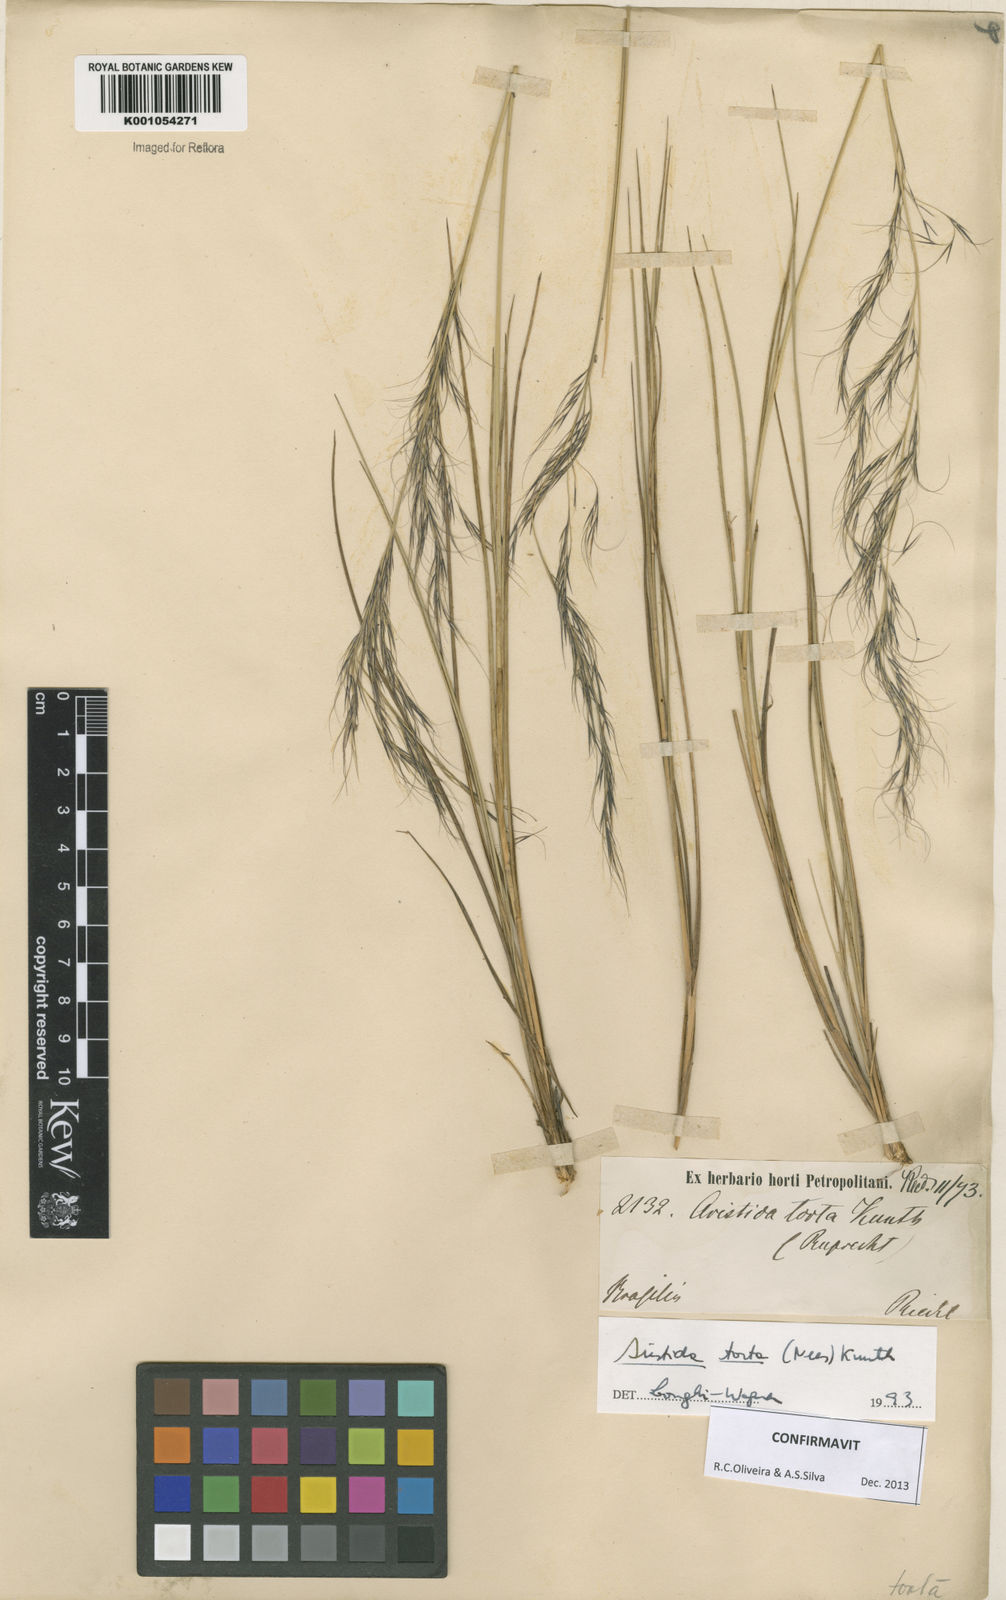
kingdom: Plantae
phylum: Tracheophyta
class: Liliopsida
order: Poales
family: Poaceae
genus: Aristida
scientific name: Aristida torta
